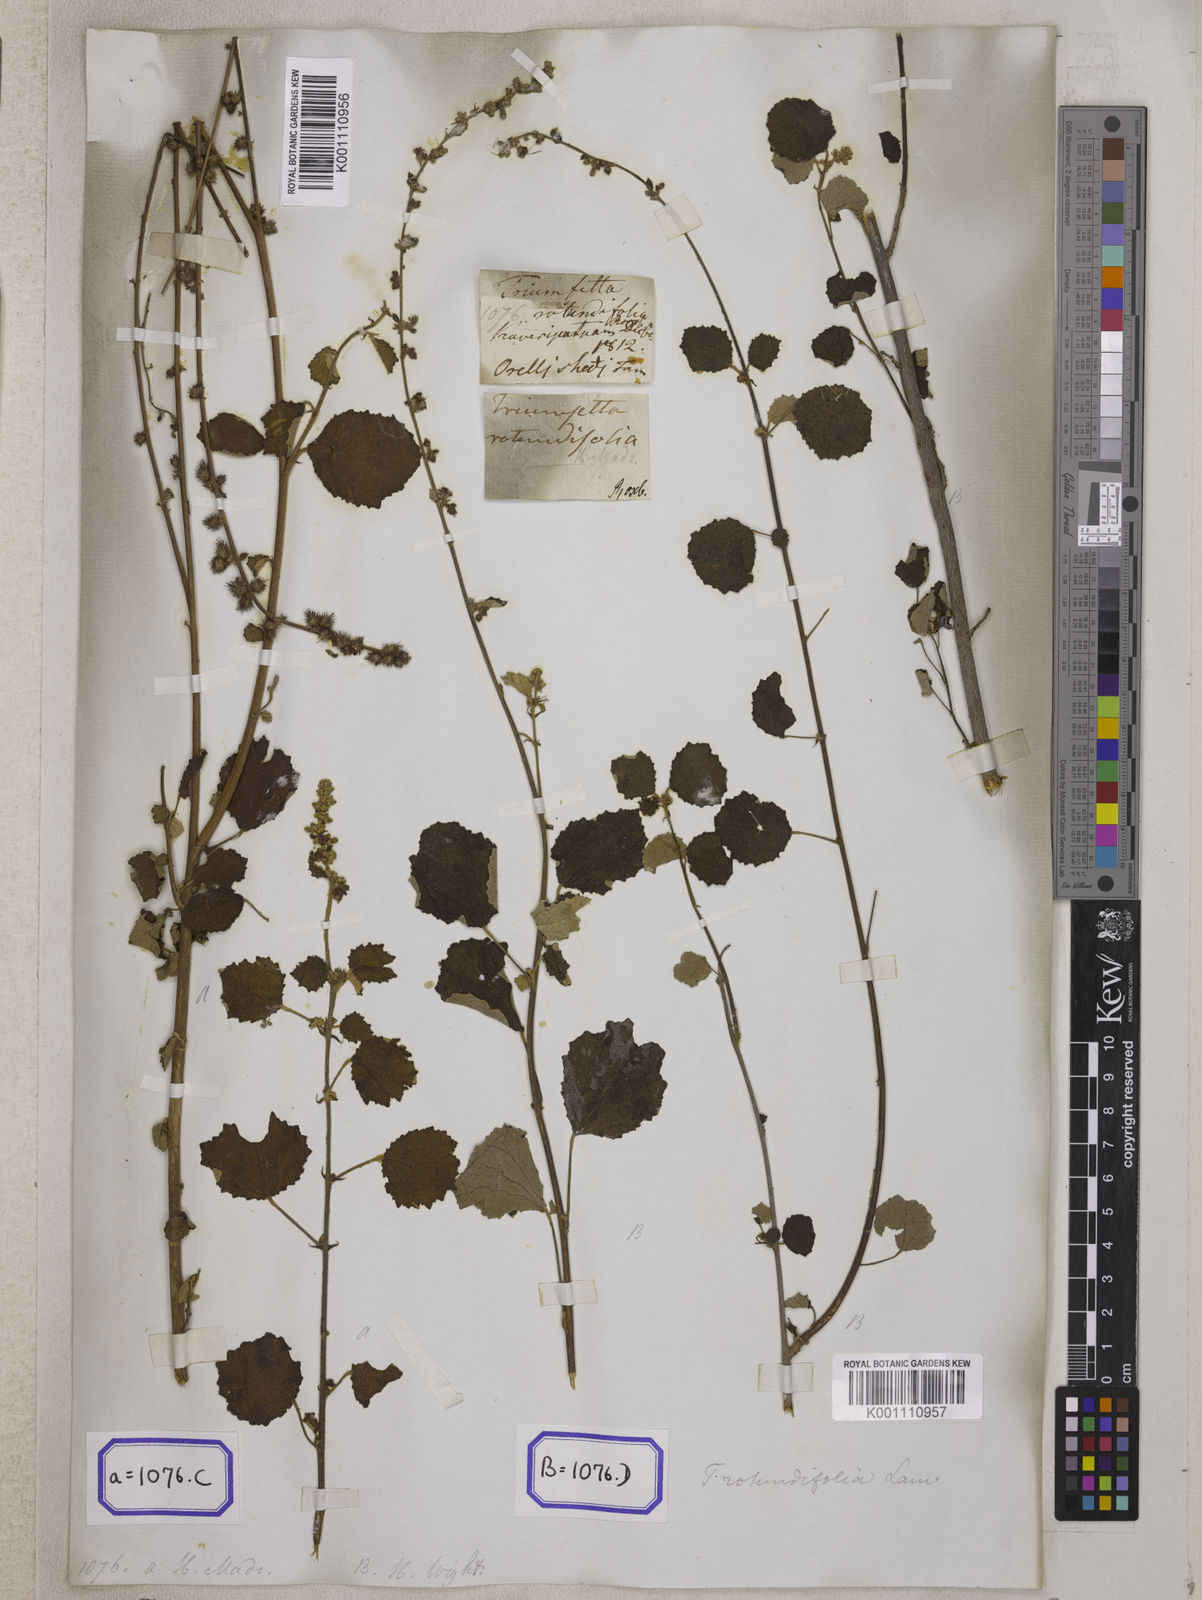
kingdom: Plantae
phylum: Tracheophyta
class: Magnoliopsida
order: Malvales
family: Malvaceae
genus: Triumfetta
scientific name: Triumfetta pilosa
